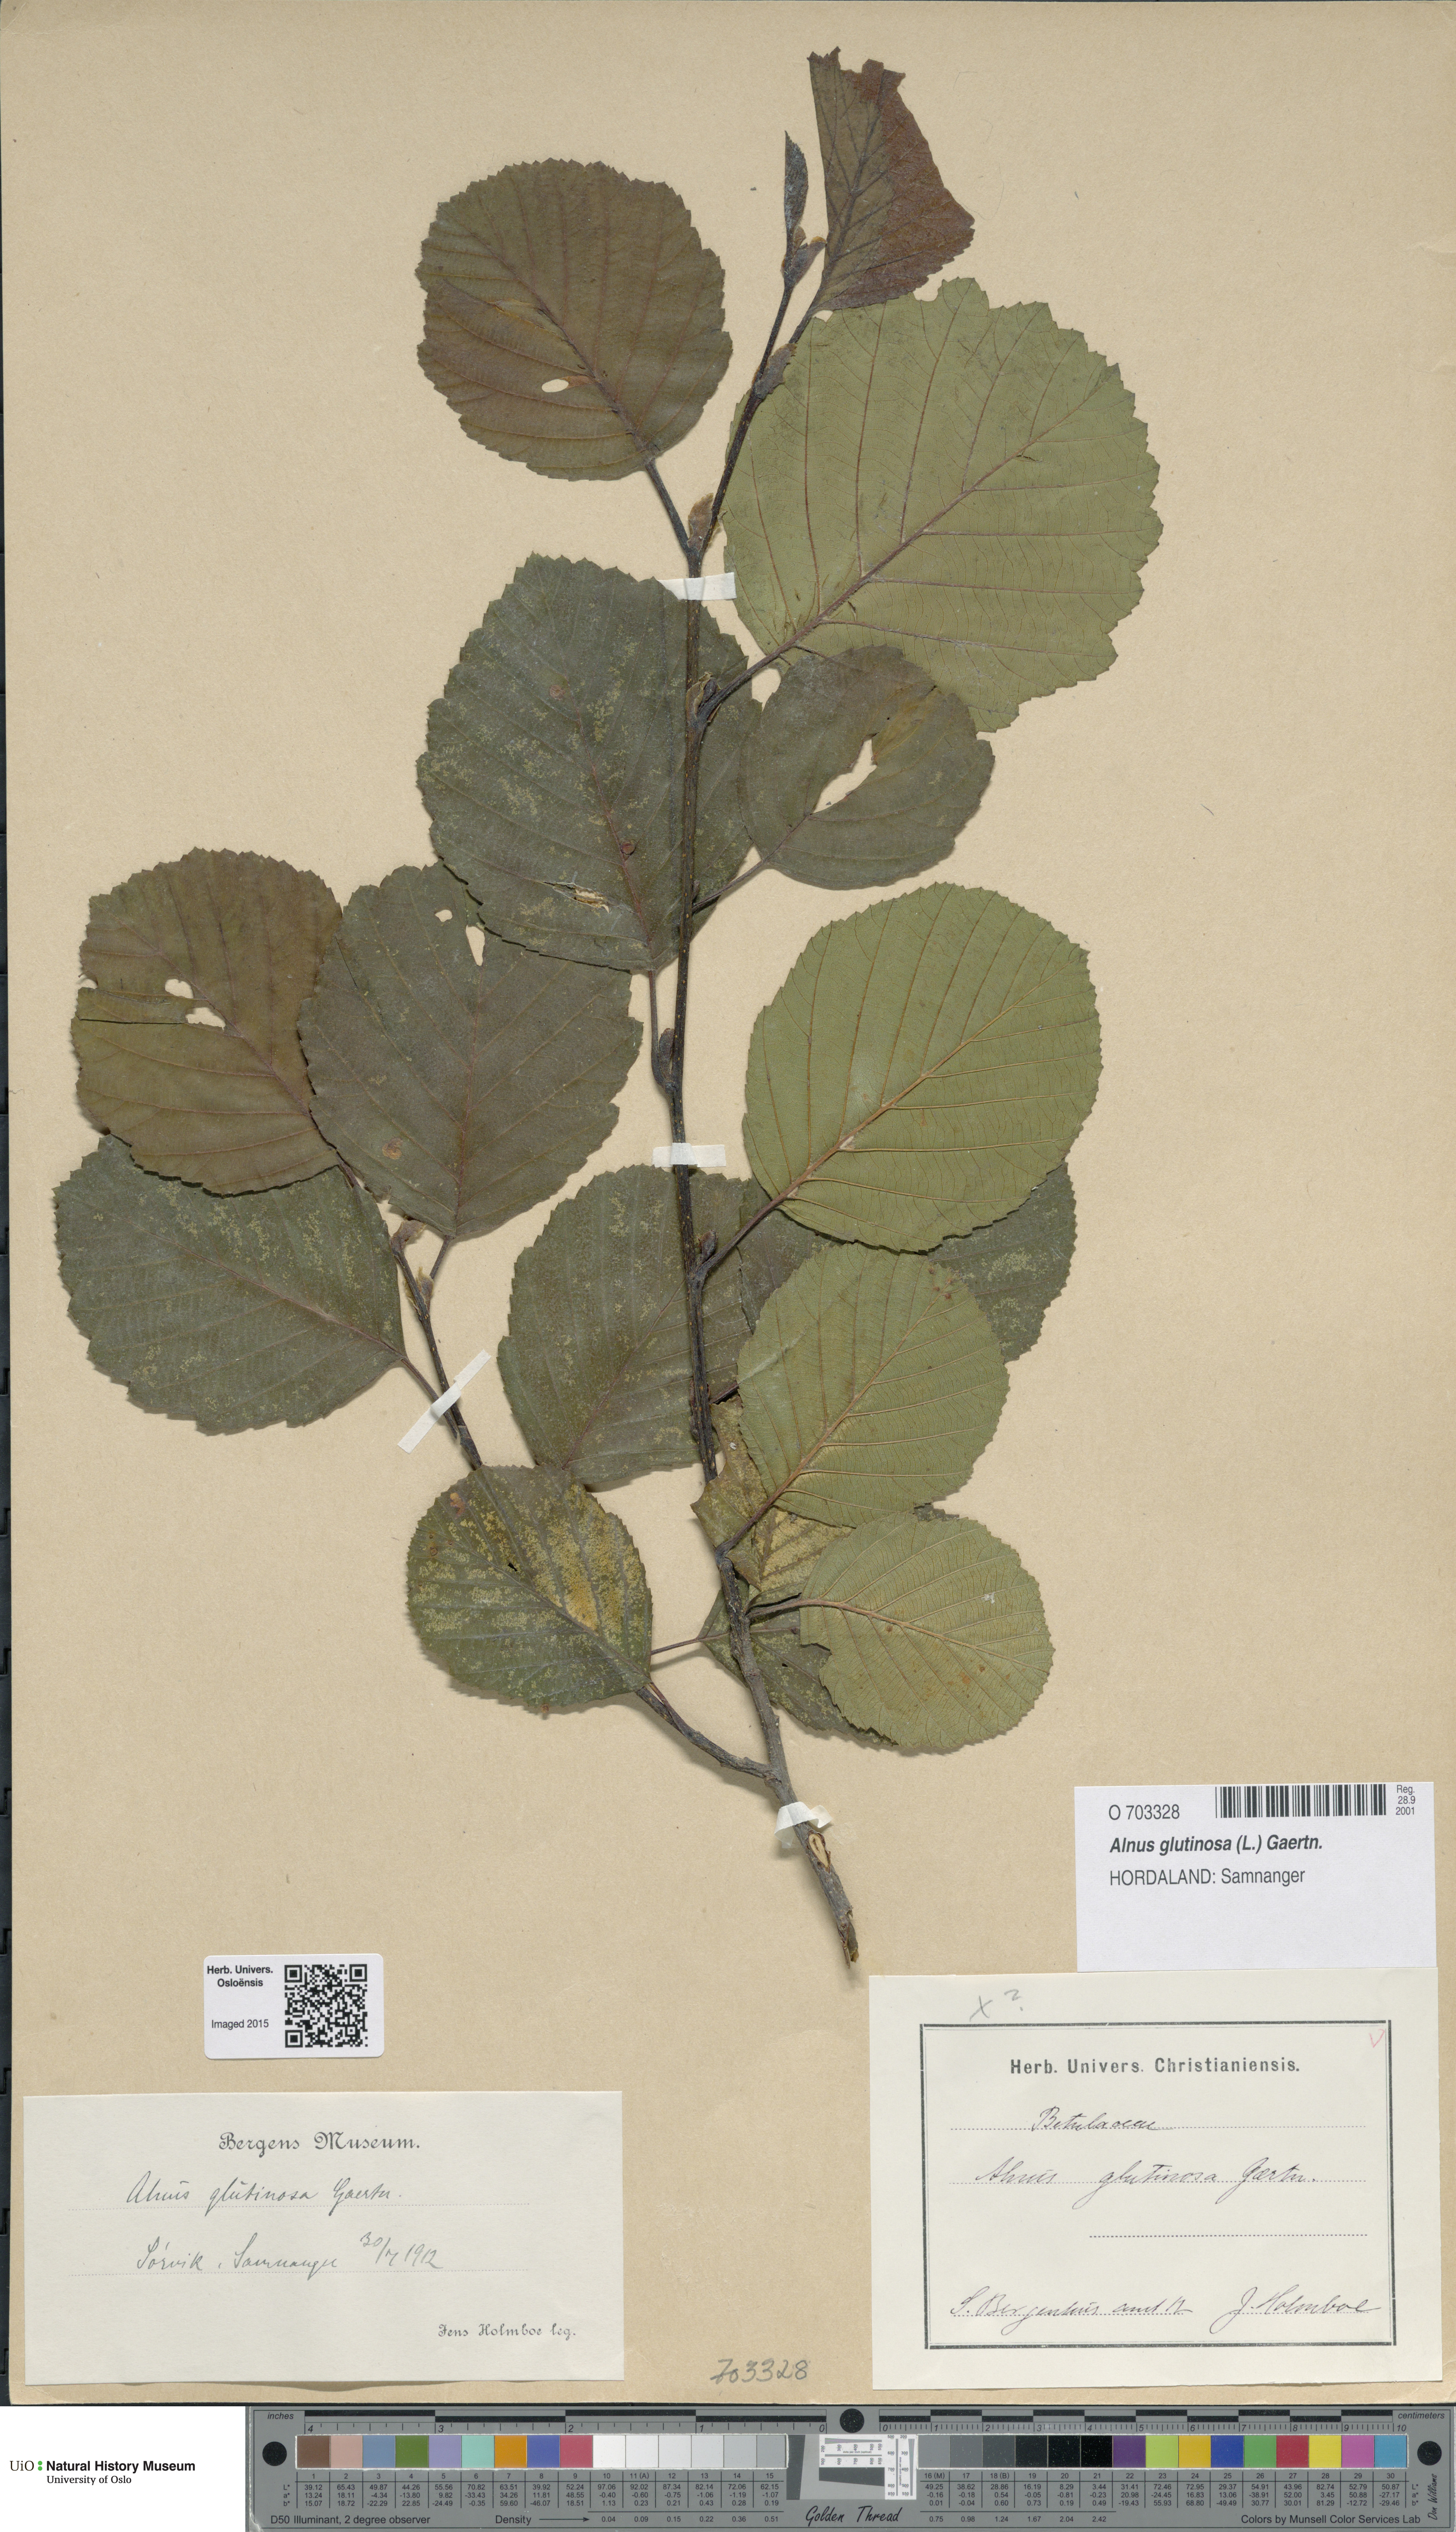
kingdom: Plantae
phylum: Tracheophyta
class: Magnoliopsida
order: Fagales
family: Betulaceae
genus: Alnus
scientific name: Alnus glutinosa
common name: Black alder
